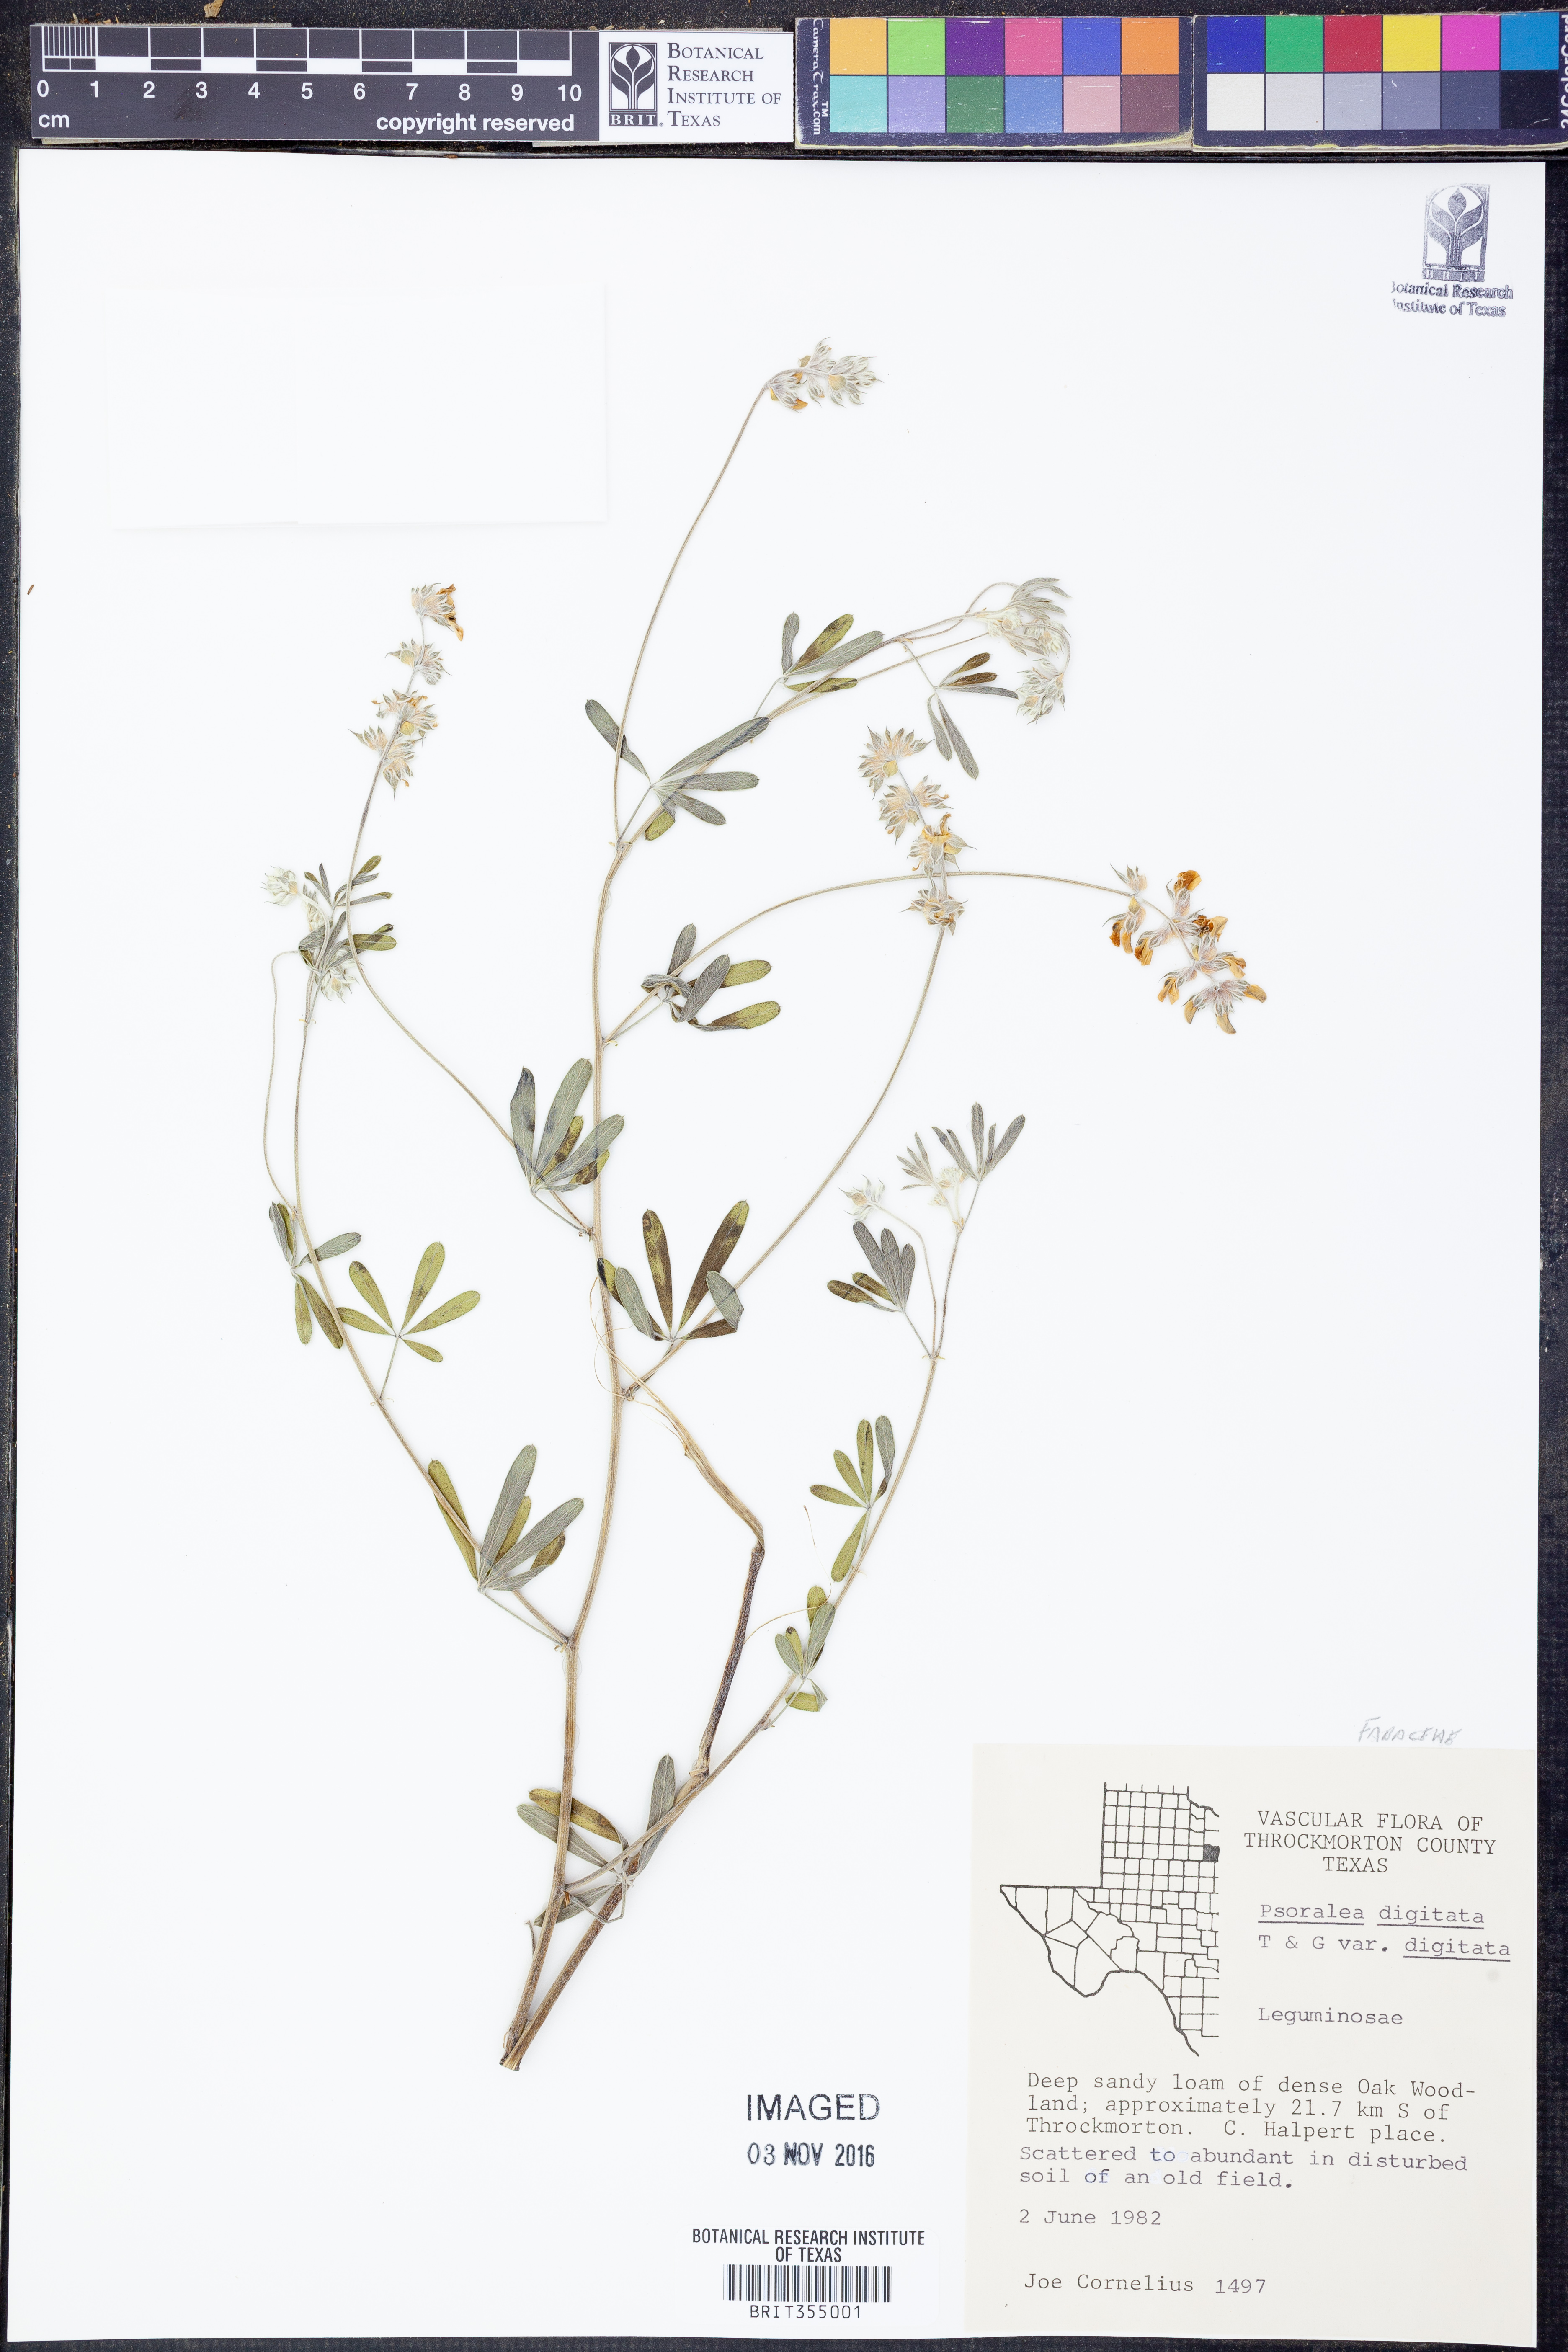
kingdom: Plantae
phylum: Tracheophyta
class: Magnoliopsida
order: Fabales
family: Fabaceae
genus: Pediomelum
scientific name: Pediomelum digitatum
